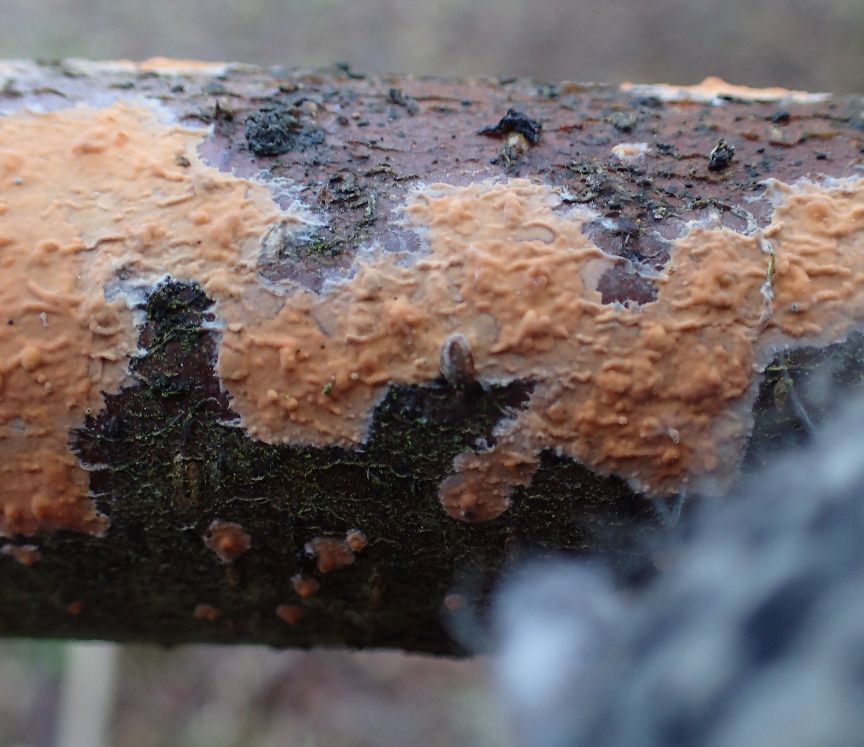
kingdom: Fungi
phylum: Basidiomycota
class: Agaricomycetes
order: Russulales
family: Peniophoraceae
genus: Peniophora
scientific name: Peniophora incarnata
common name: laksefarvet voksskind
